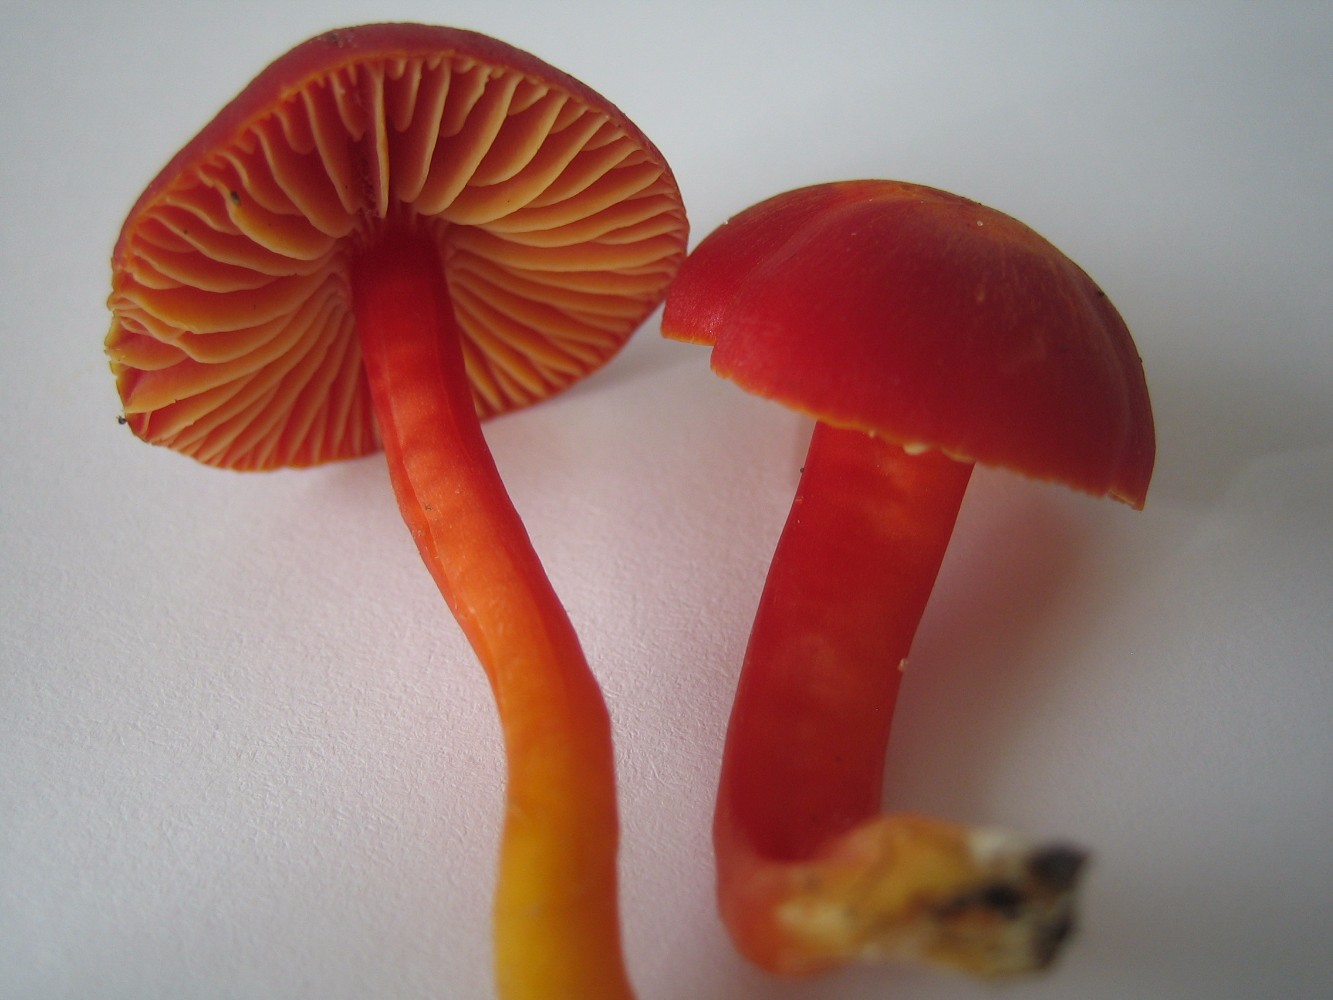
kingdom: Fungi
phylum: Basidiomycota
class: Agaricomycetes
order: Agaricales
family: Hygrophoraceae
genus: Hygrocybe
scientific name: Hygrocybe coccinea
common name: cinnober-vokshat
